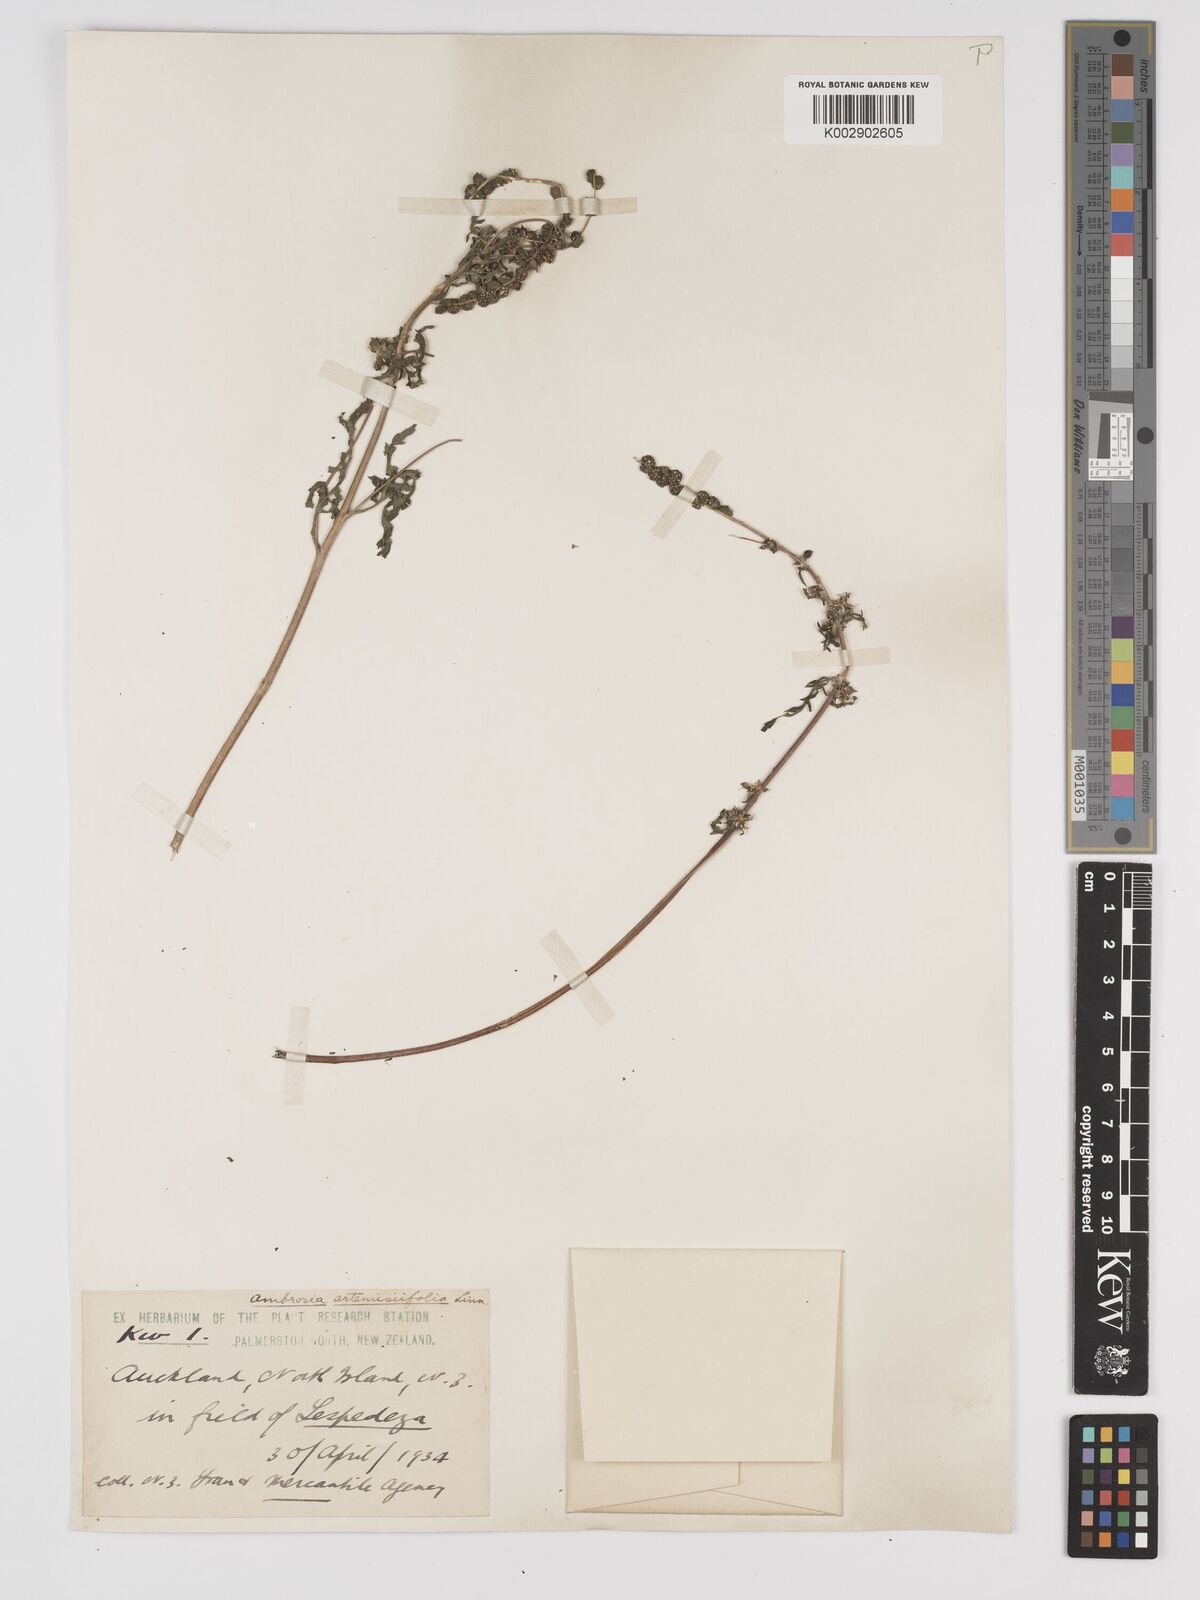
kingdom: Plantae
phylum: Tracheophyta
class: Magnoliopsida
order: Asterales
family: Asteraceae
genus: Ambrosia
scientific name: Ambrosia artemisiifolia
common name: Annual ragweed
